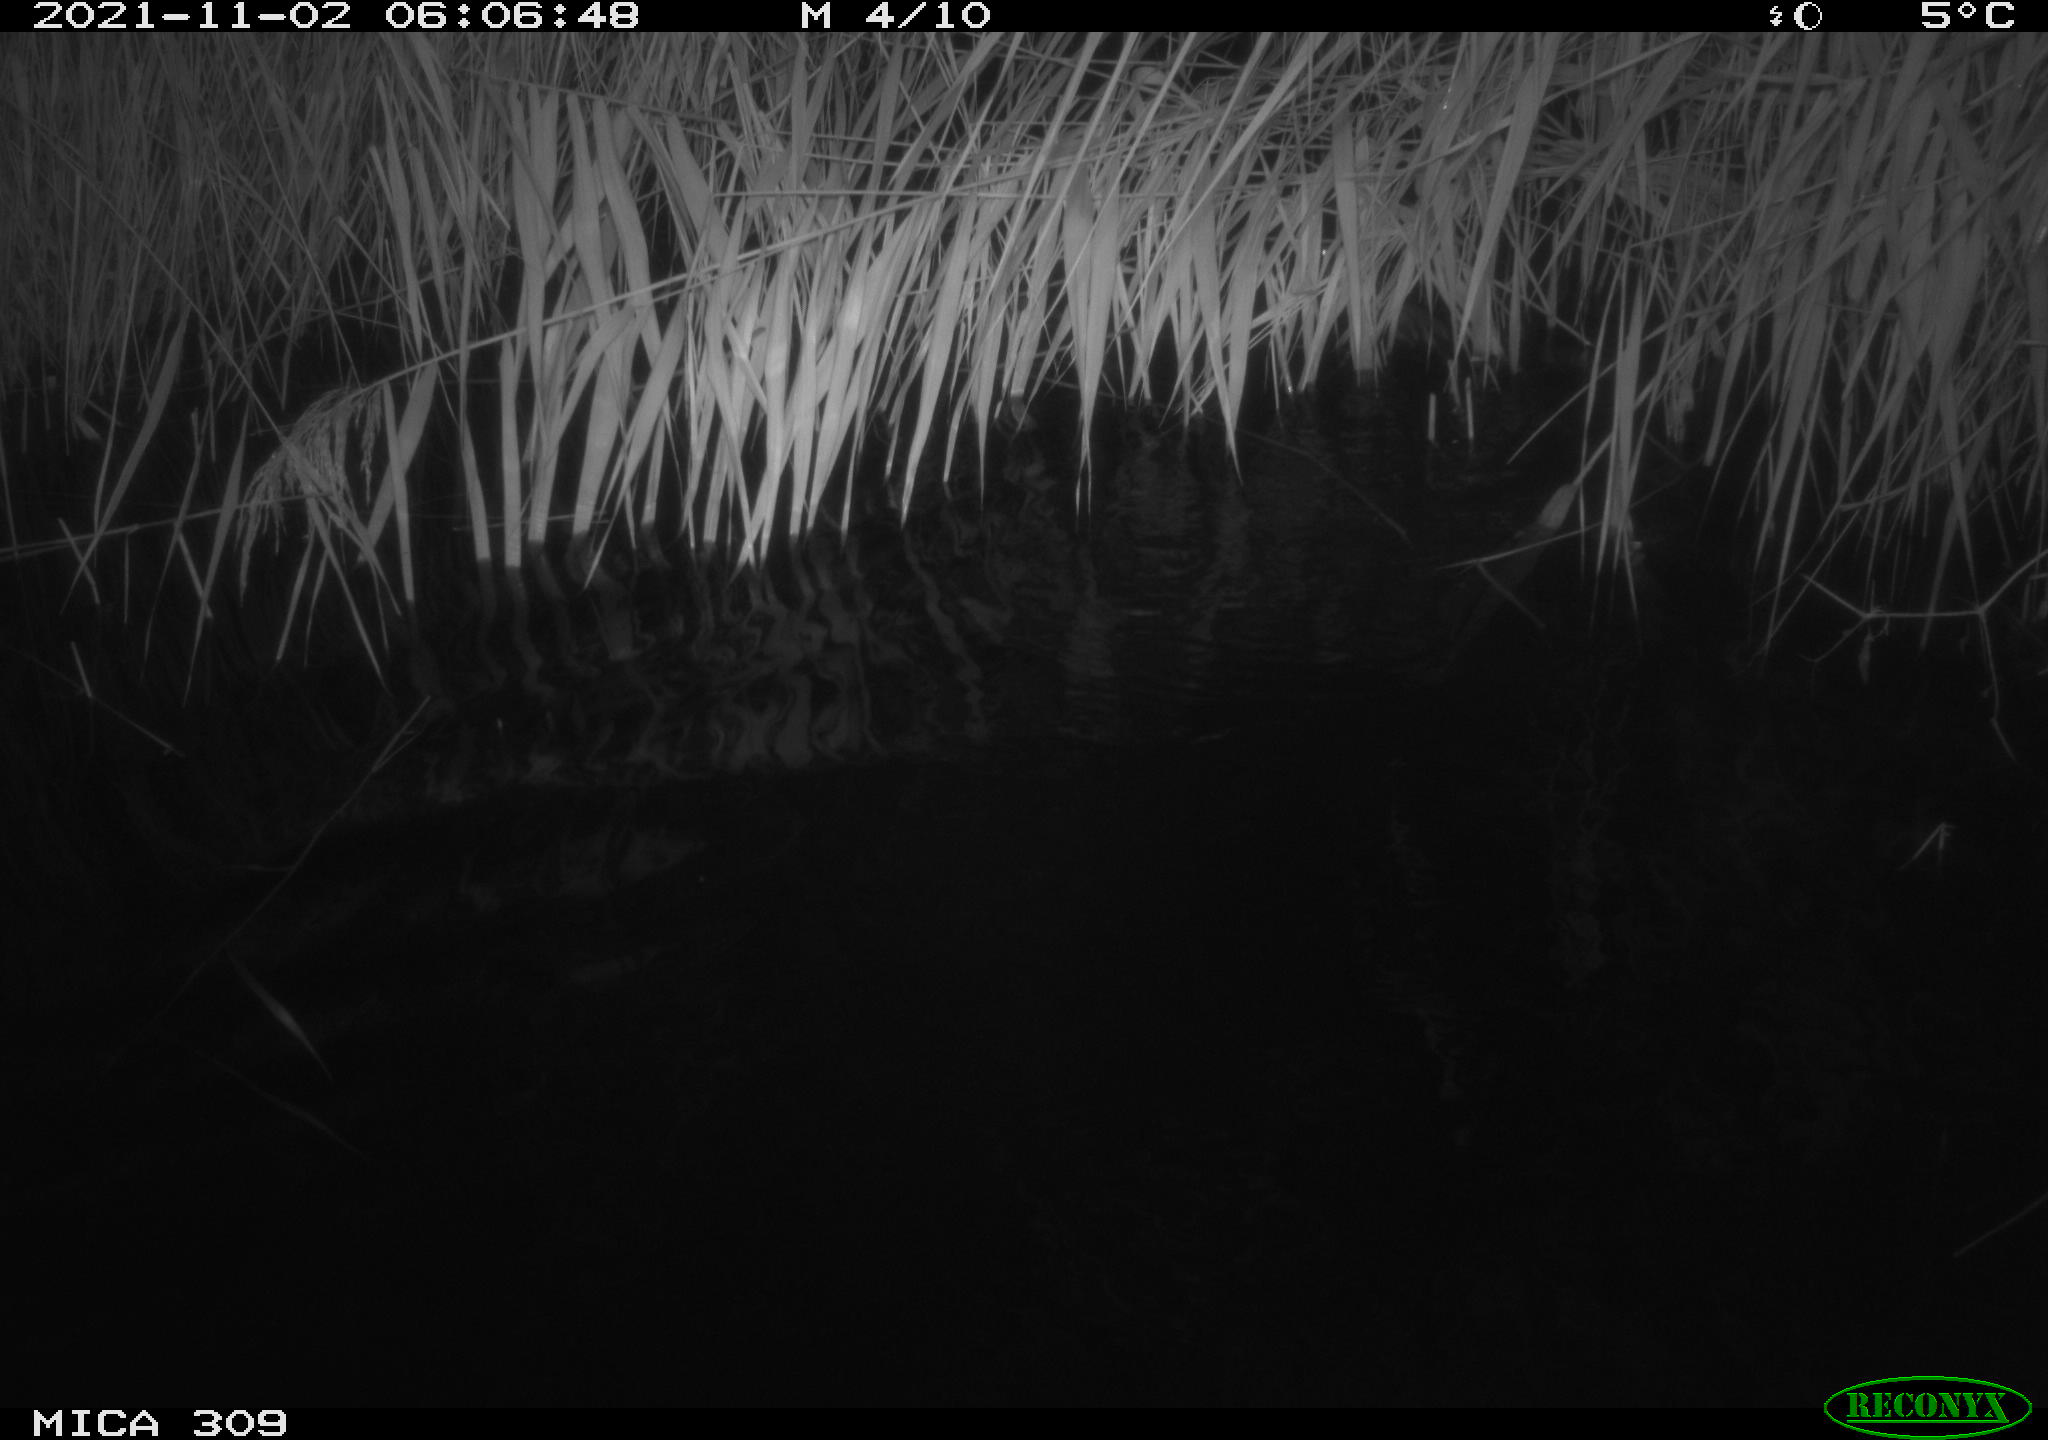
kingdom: Animalia
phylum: Chordata
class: Mammalia
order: Rodentia
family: Cricetidae
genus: Ondatra
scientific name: Ondatra zibethicus
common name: Muskrat
